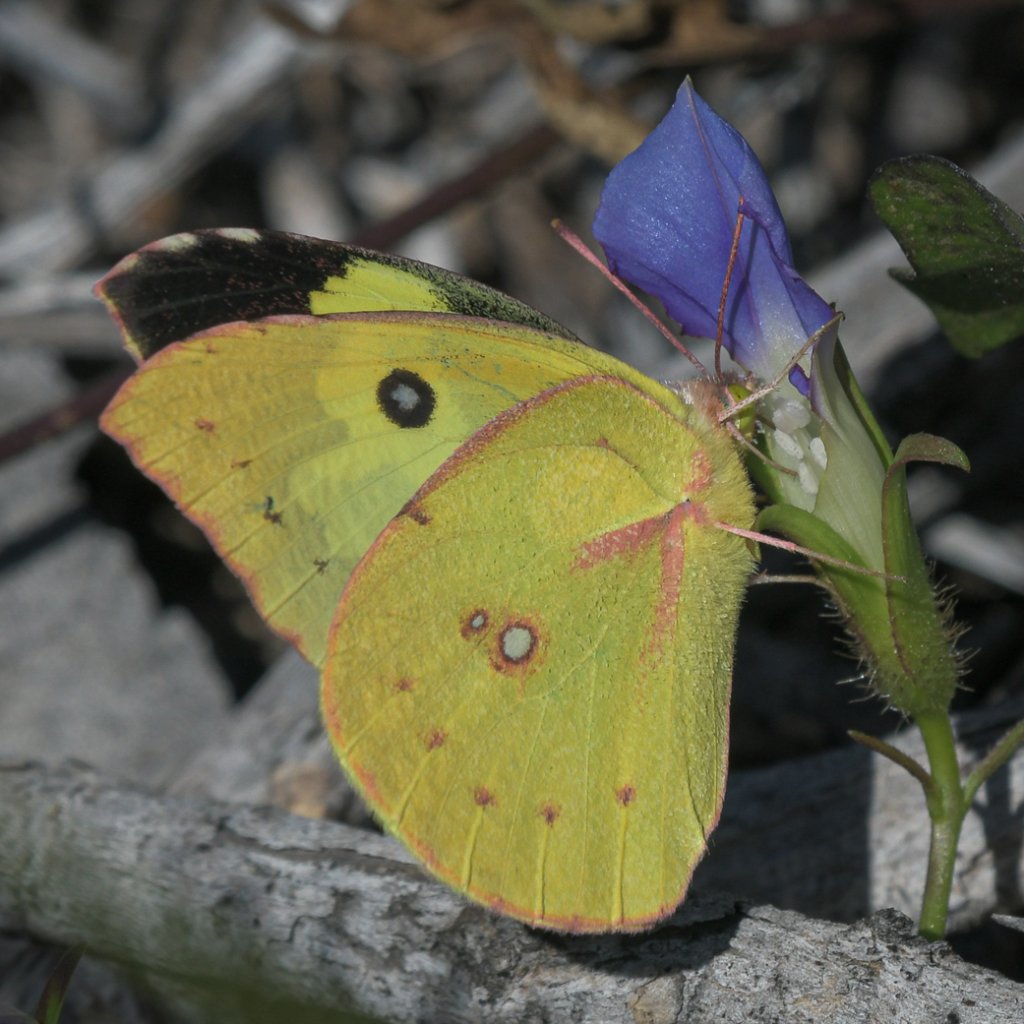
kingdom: Animalia
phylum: Arthropoda
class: Insecta
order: Lepidoptera
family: Pieridae
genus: Zerene
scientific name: Zerene cesonia
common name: Southern Dogface
